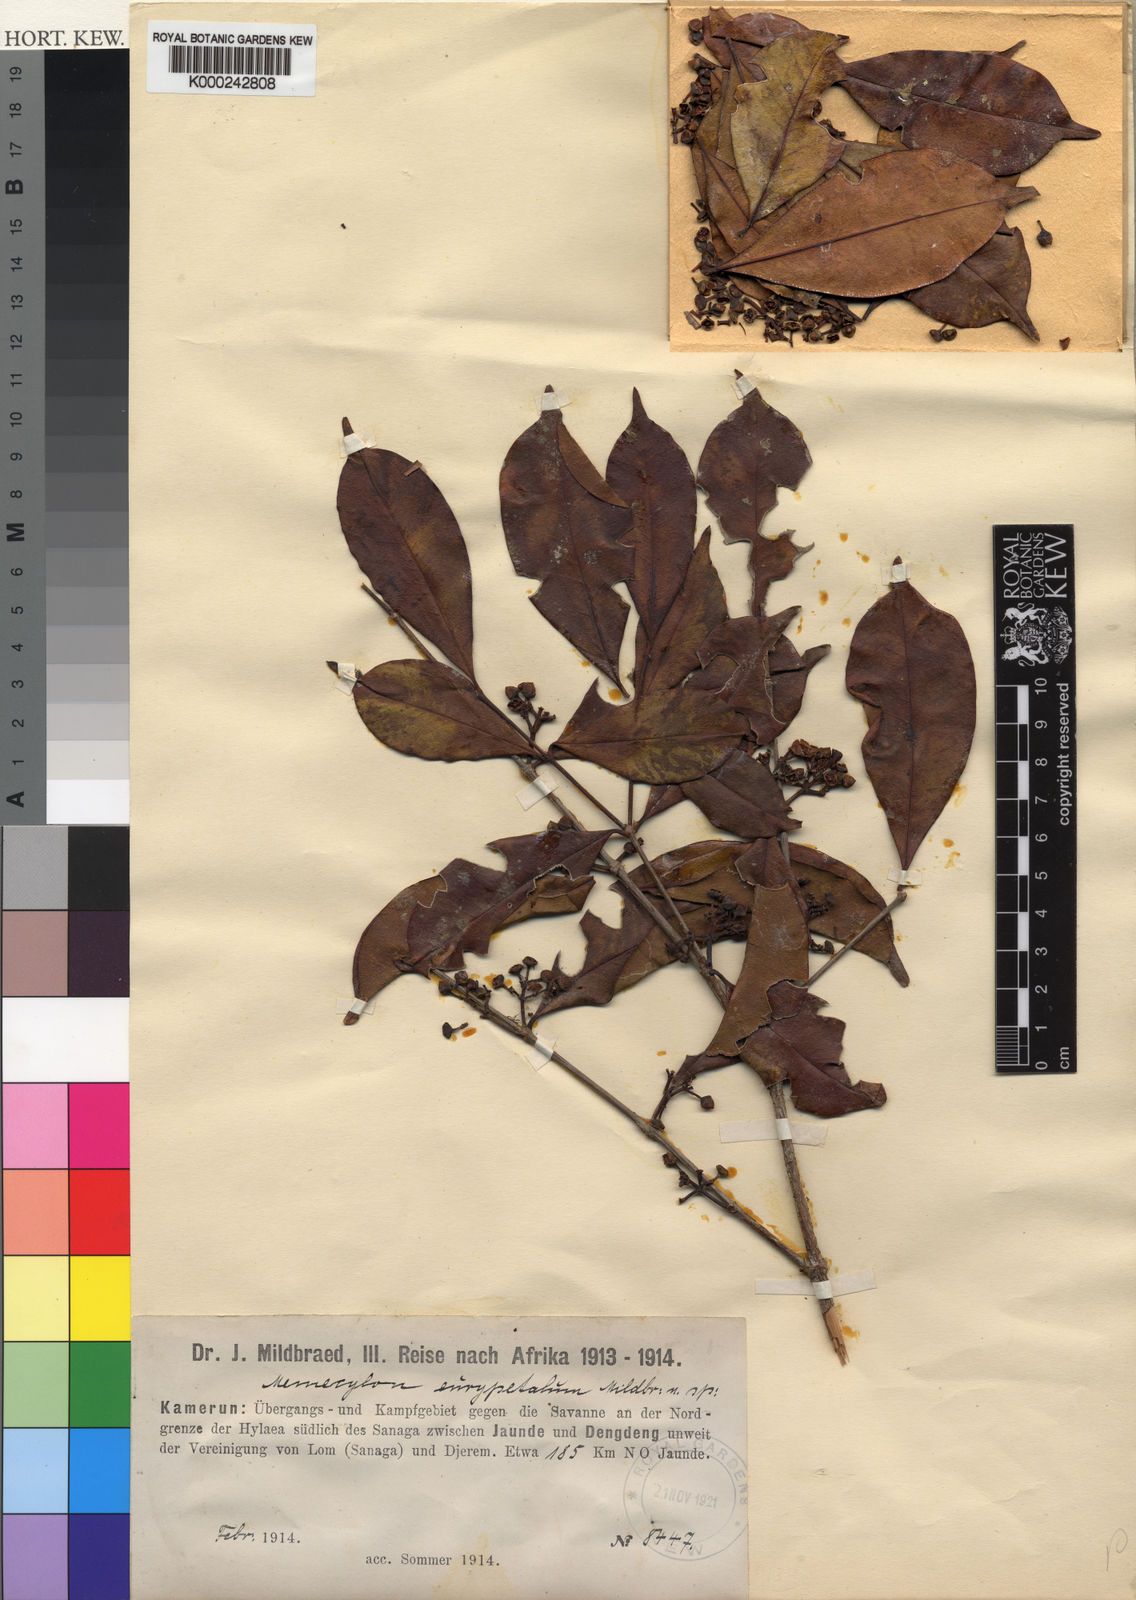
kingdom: Plantae
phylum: Tracheophyta
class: Magnoliopsida
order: Myrtales
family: Melastomataceae
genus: Memecylon
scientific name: Memecylon
